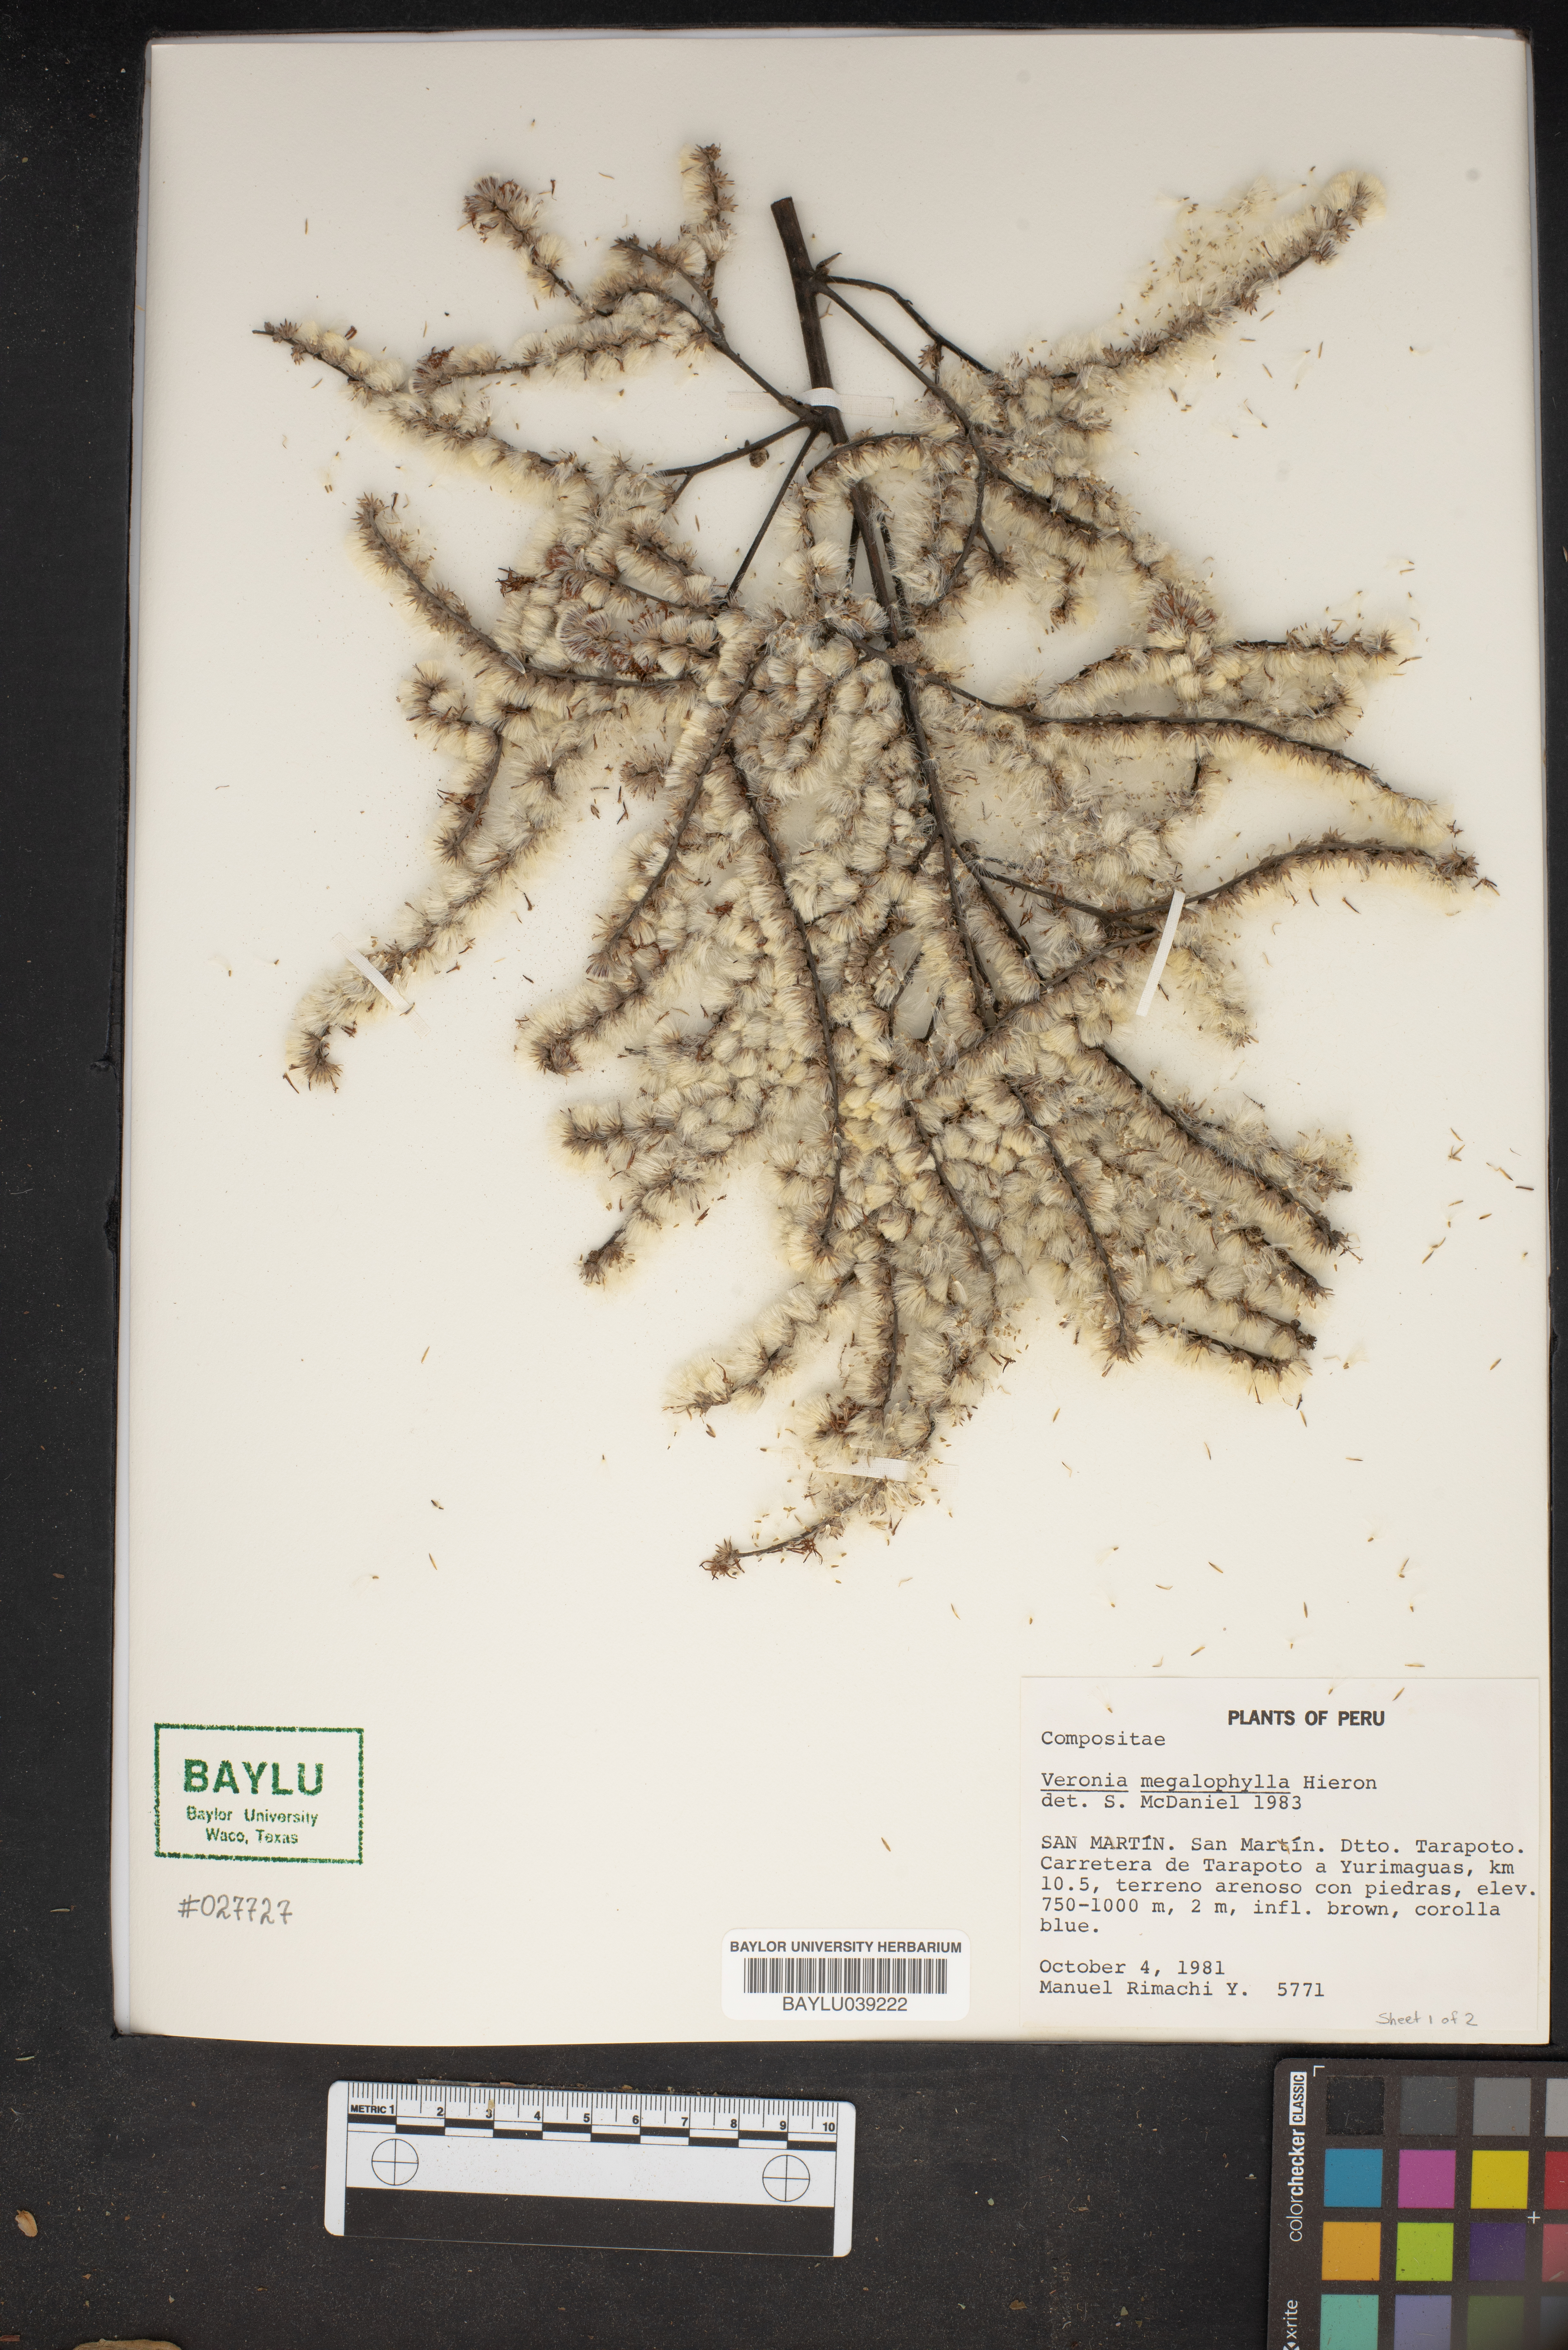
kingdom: Plantae
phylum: Tracheophyta
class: Magnoliopsida
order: Lamiales
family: Plantaginaceae
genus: Veronica
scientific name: Veronica
